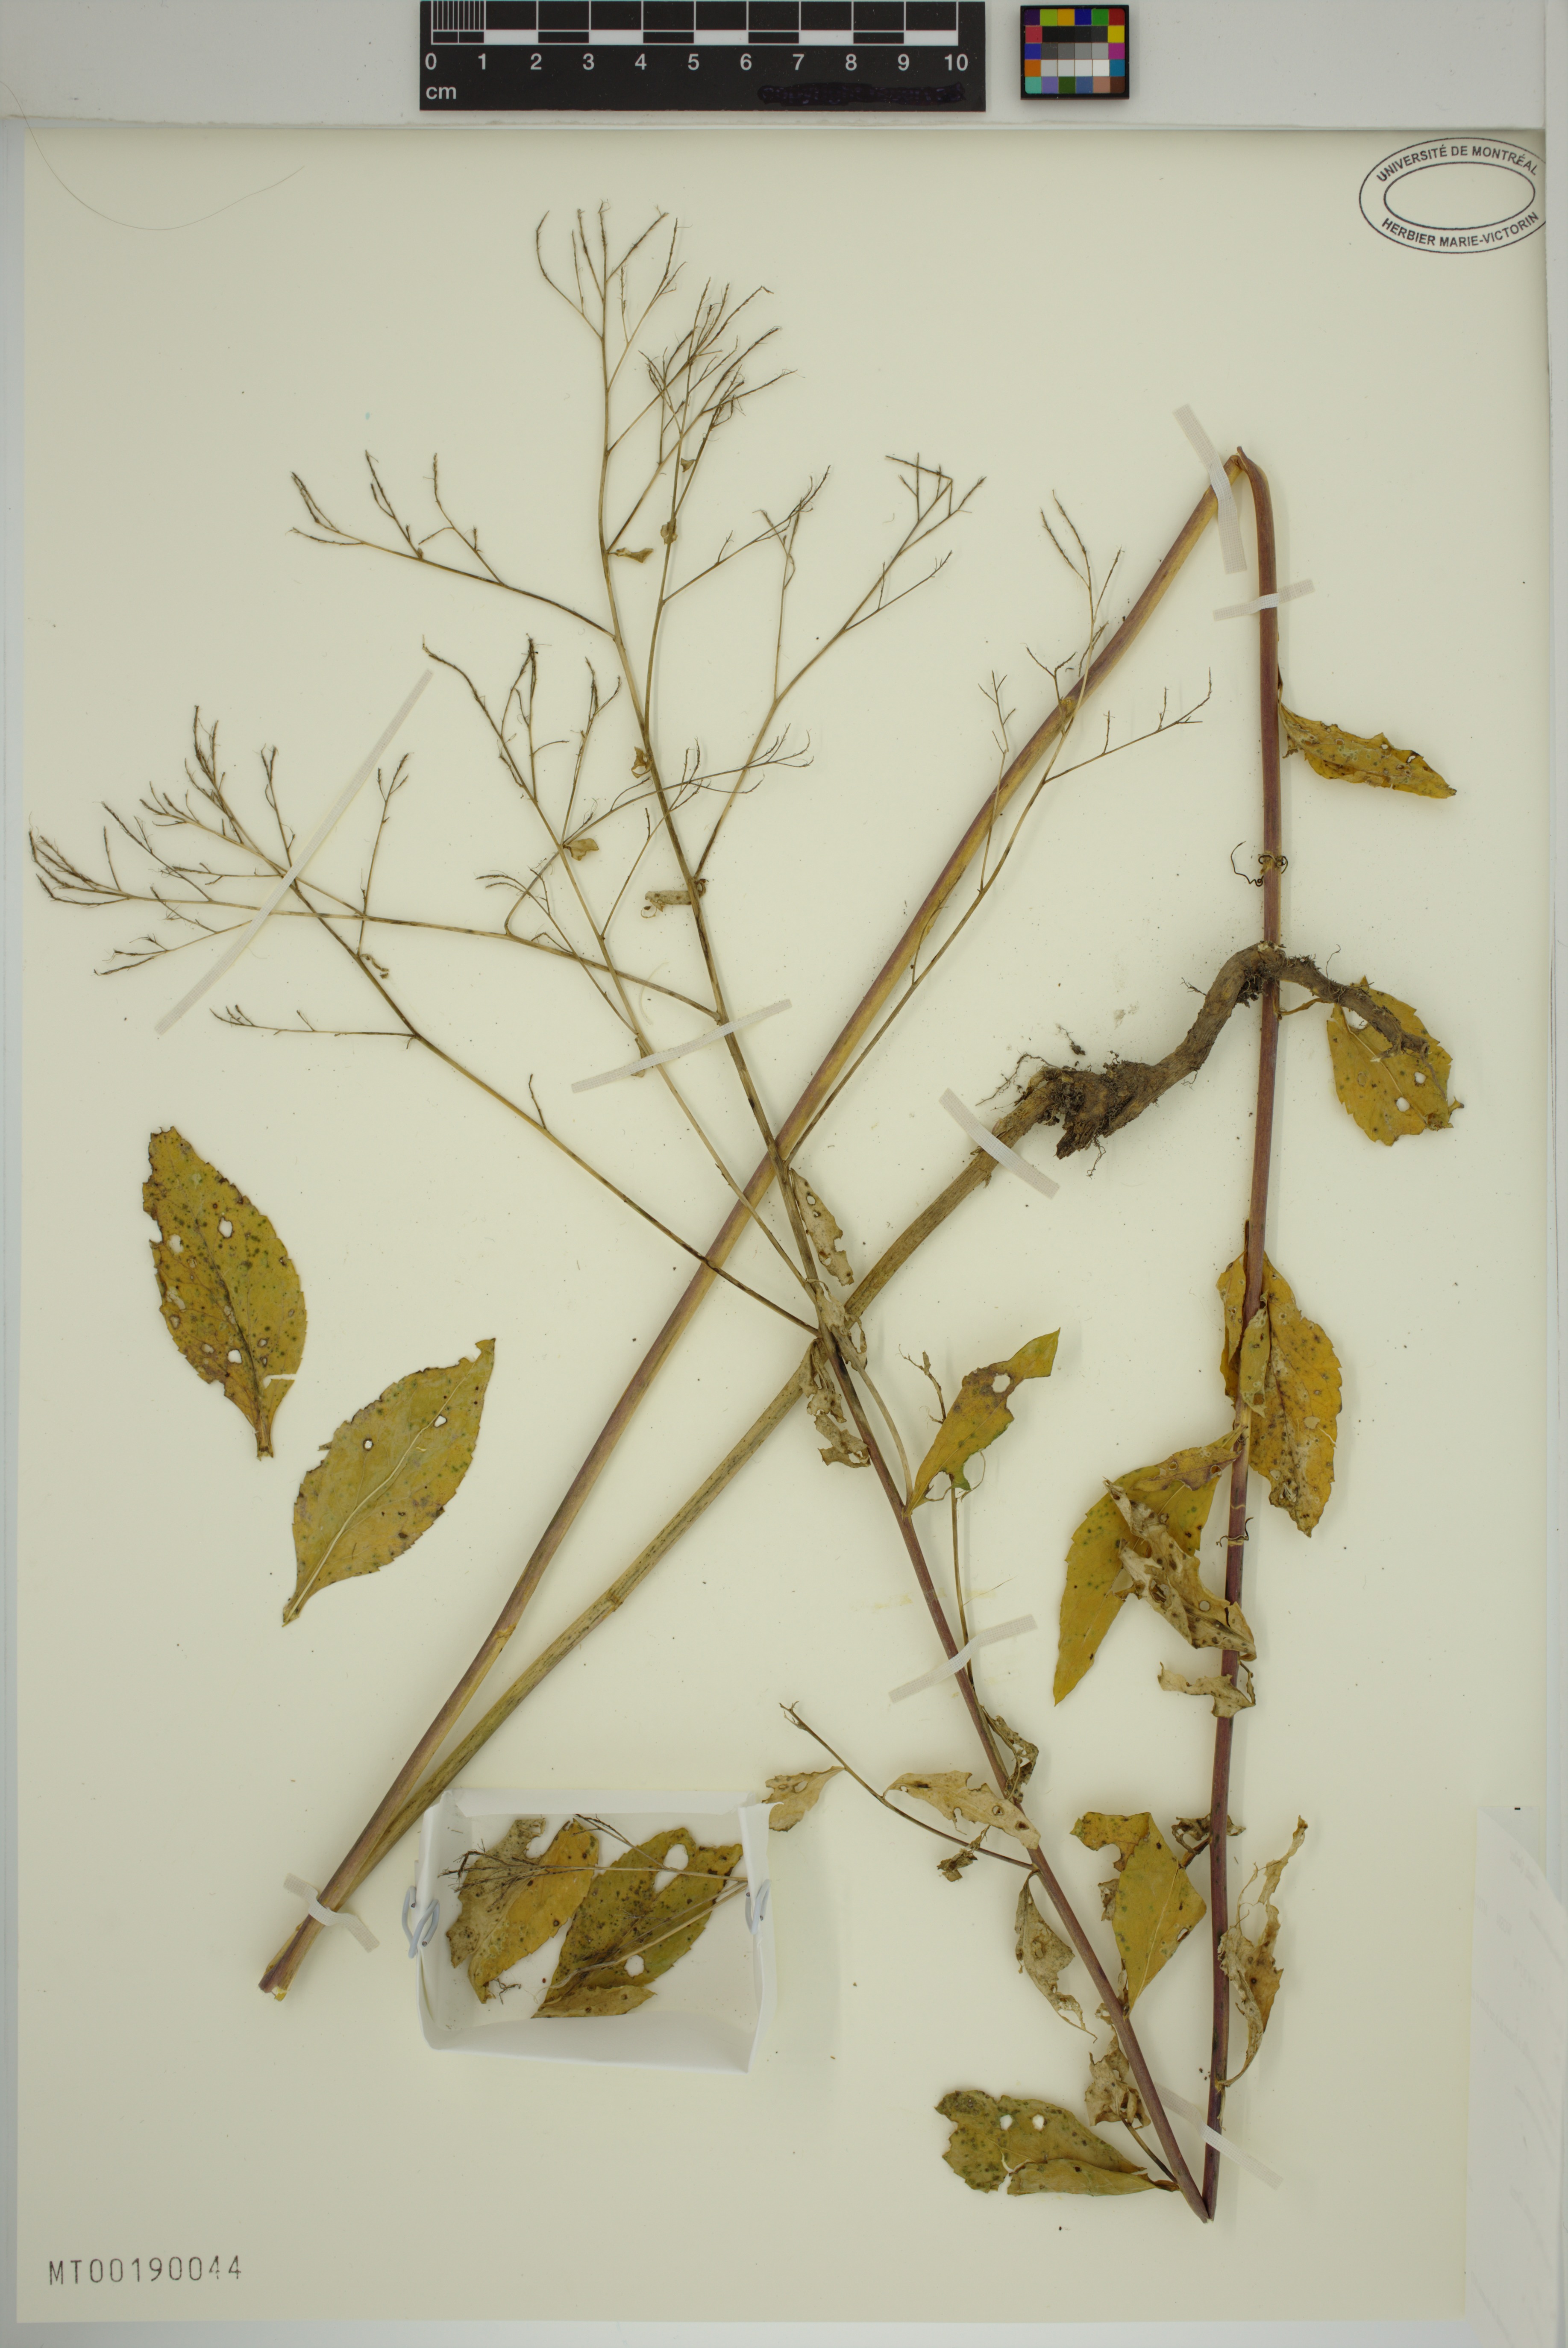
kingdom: Plantae
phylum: Tracheophyta
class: Magnoliopsida
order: Brassicales
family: Brassicaceae
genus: Lepidium
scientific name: Lepidium latifolium
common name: Dittander
